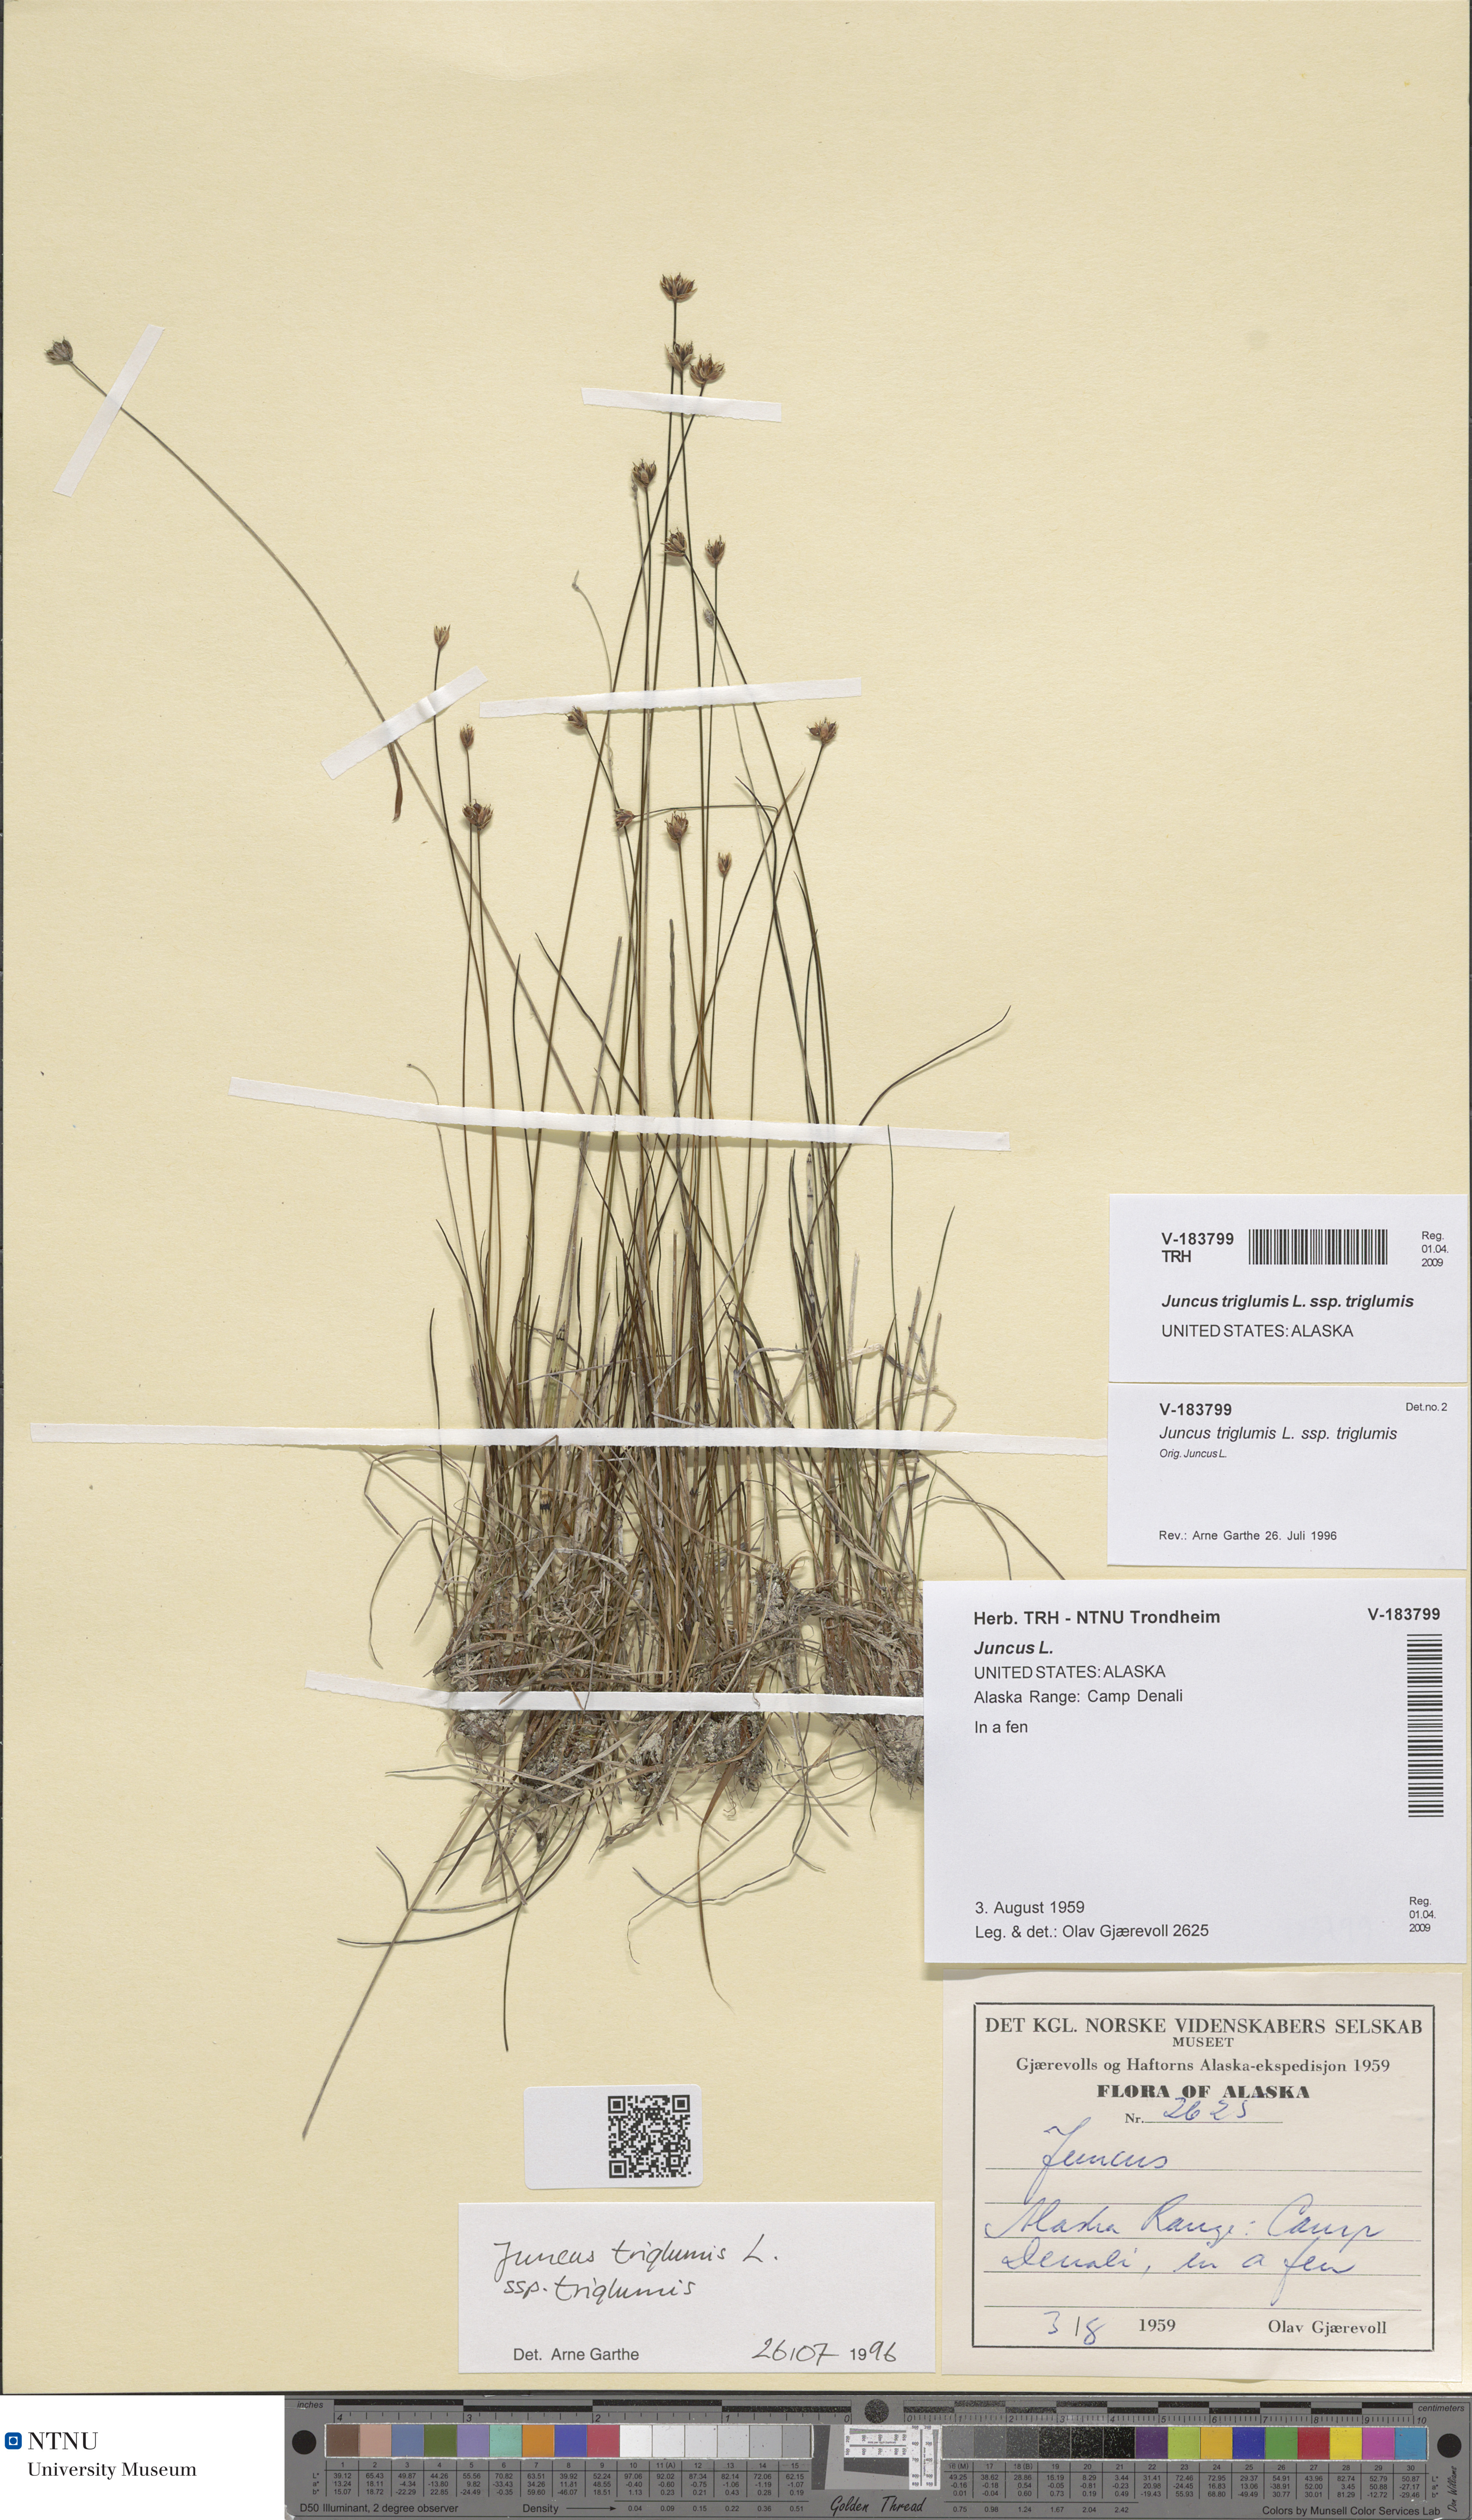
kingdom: Plantae
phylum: Tracheophyta
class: Liliopsida
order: Poales
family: Juncaceae
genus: Juncus
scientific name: Juncus triglumis
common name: Three-flowered rush
